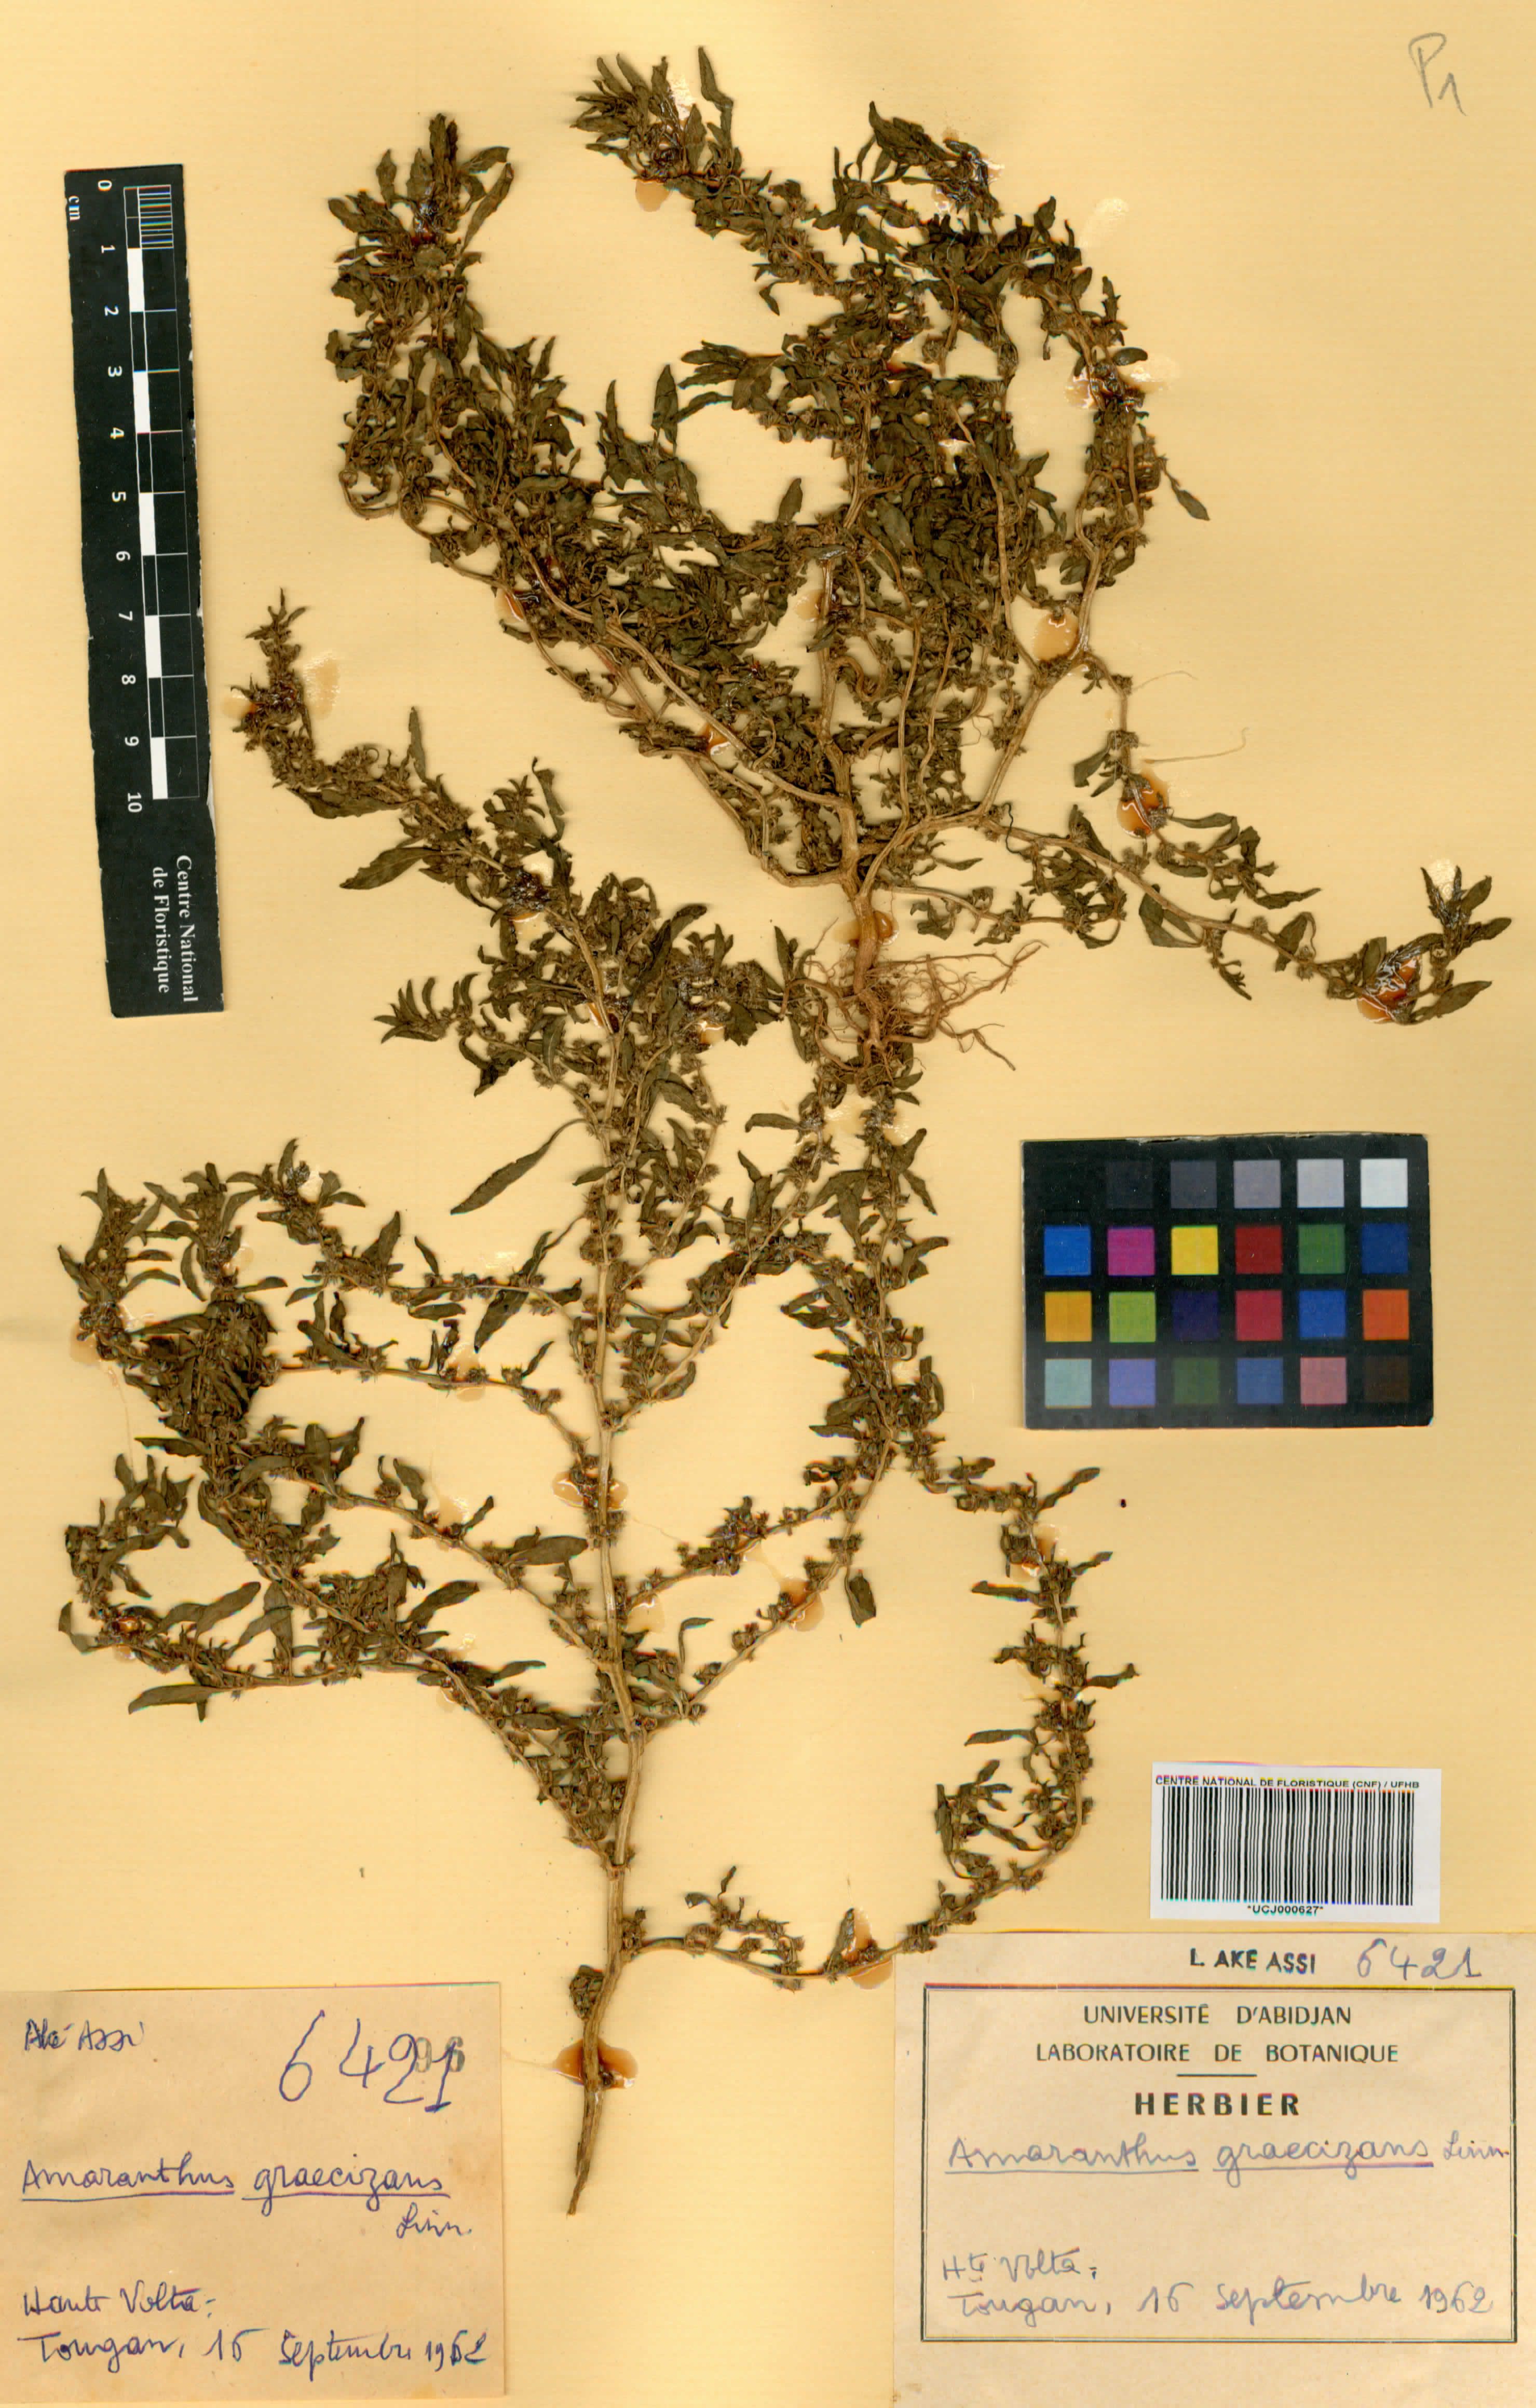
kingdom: Plantae
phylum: Tracheophyta
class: Magnoliopsida
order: Caryophyllales
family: Amaranthaceae
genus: Amaranthus
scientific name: Amaranthus graecizans
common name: Mediterranean amaranth
